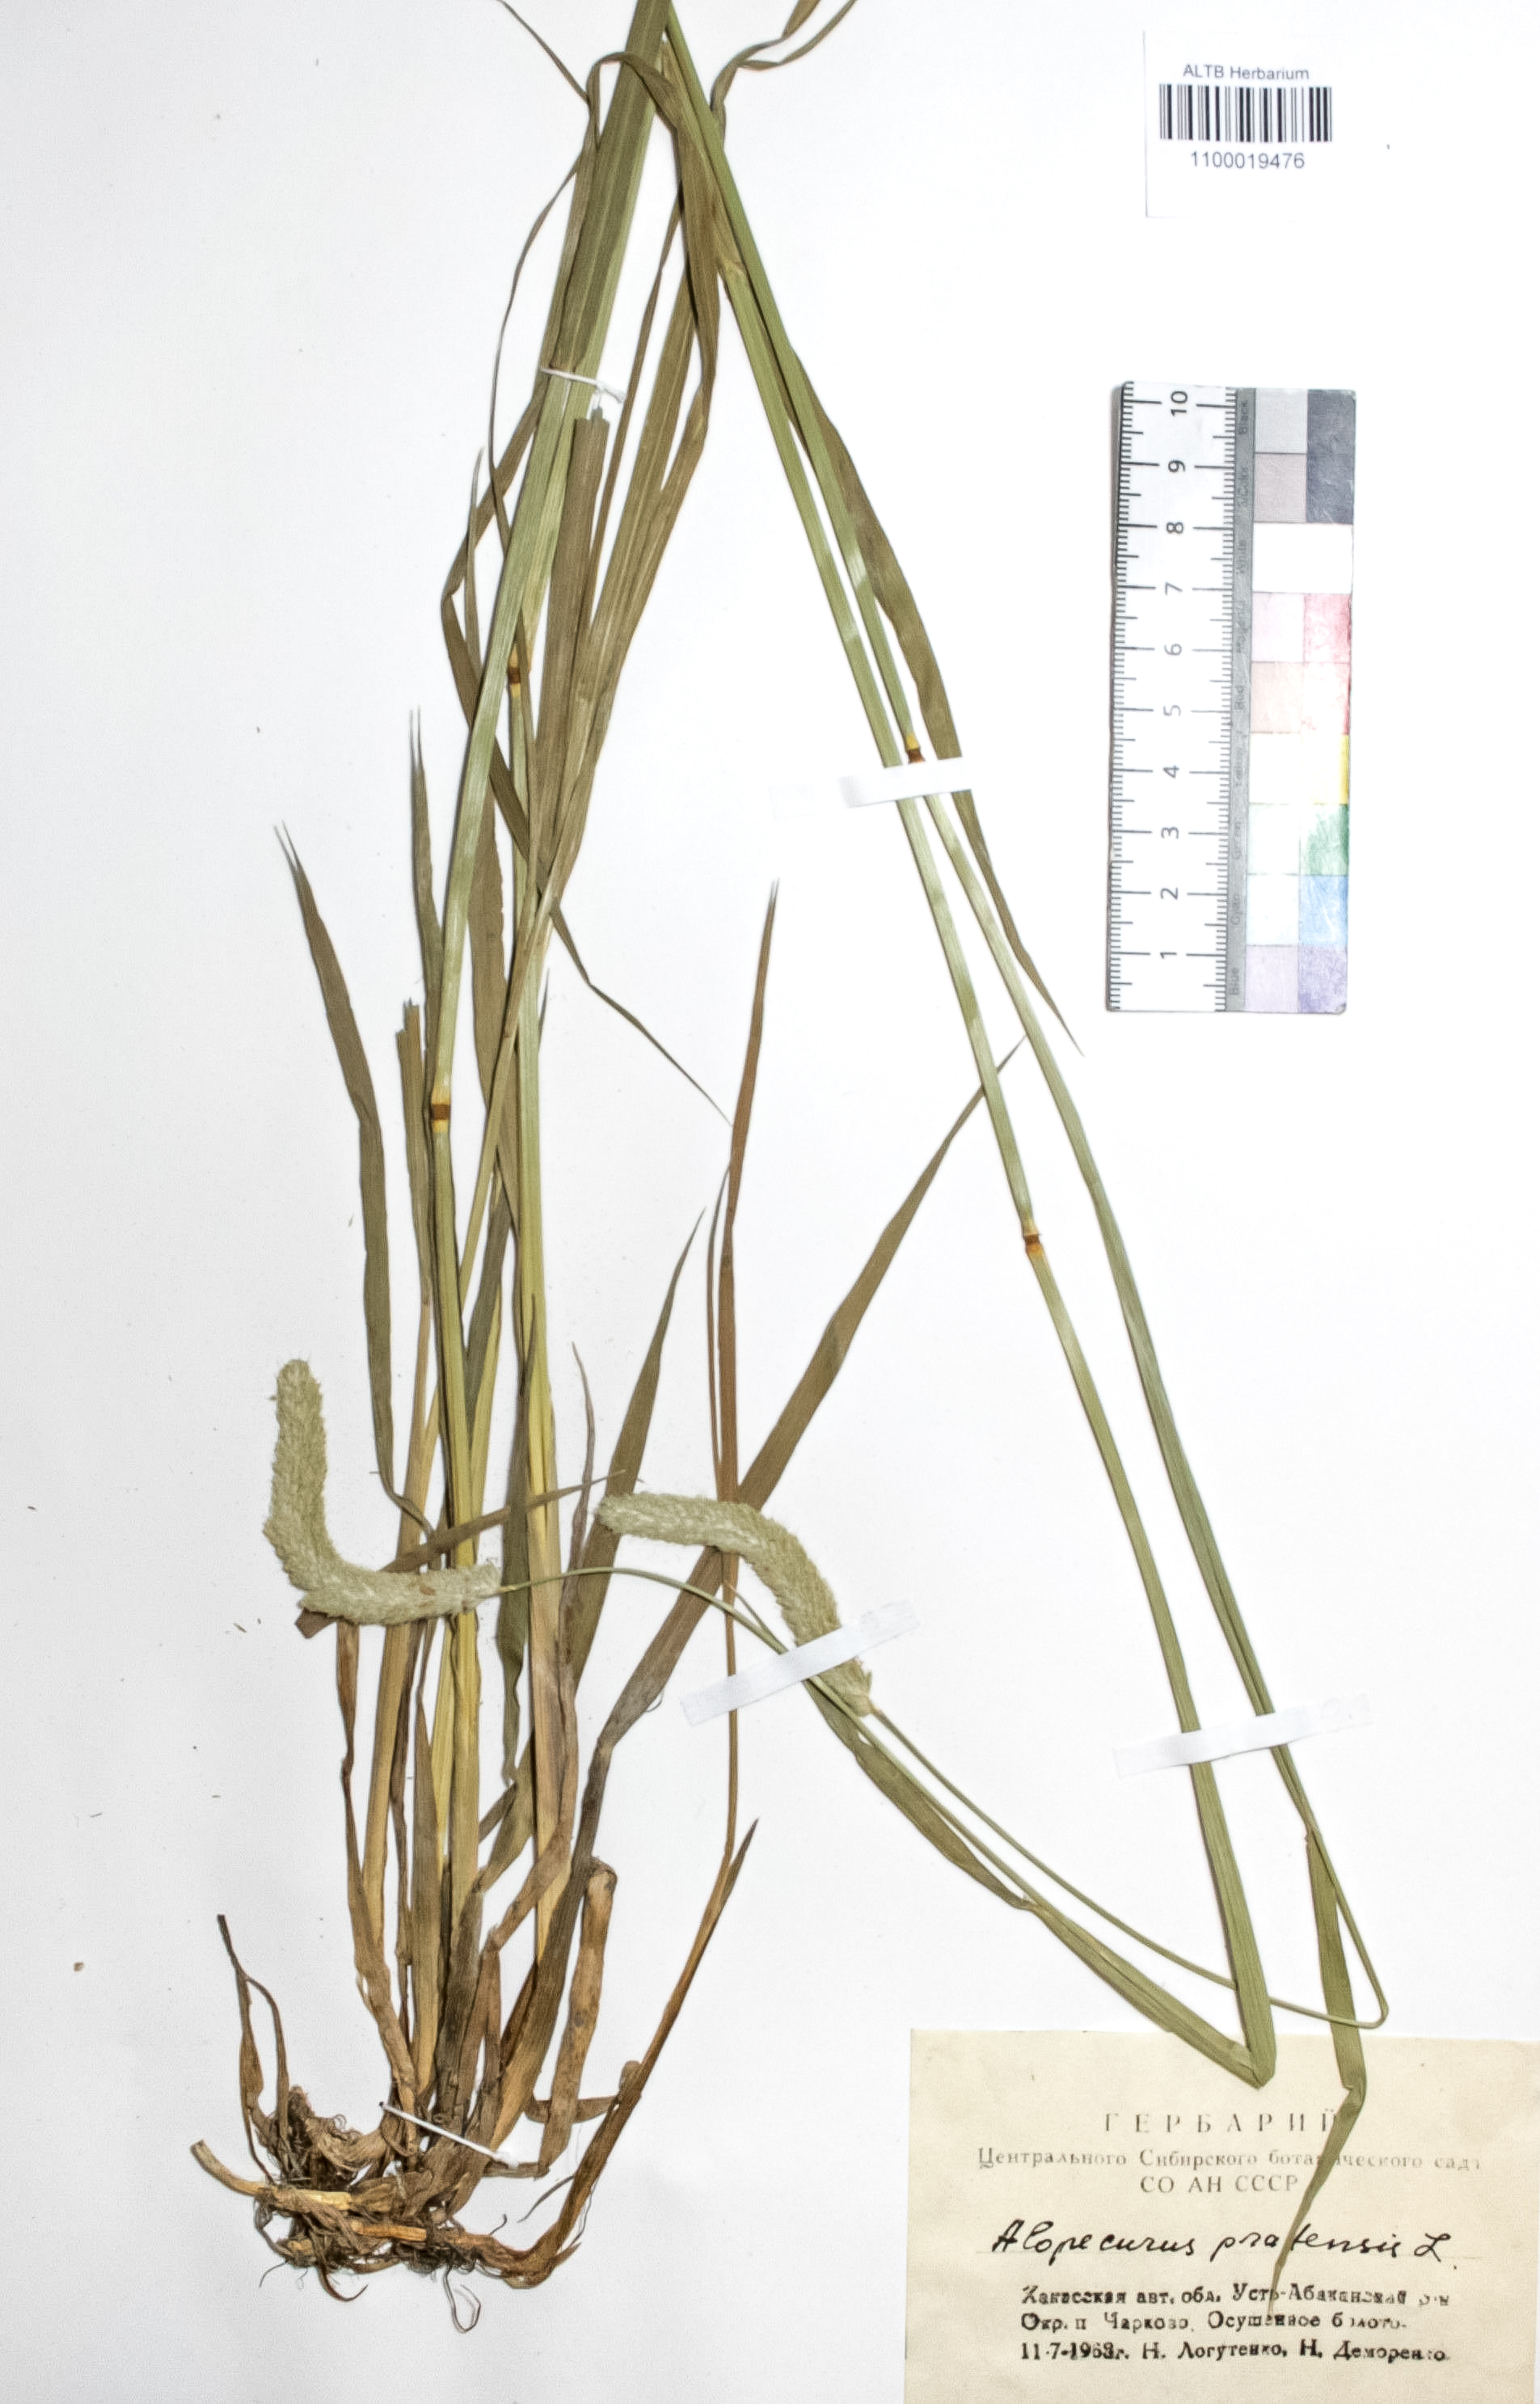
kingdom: Plantae
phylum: Tracheophyta
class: Liliopsida
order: Poales
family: Poaceae
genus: Alopecurus
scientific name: Alopecurus pratensis
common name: Meadow foxtail
